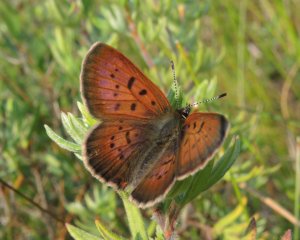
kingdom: Animalia
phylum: Arthropoda
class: Insecta
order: Lepidoptera
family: Lycaenidae
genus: Epidemia
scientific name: Epidemia dorcas
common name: Dorcas Copper
